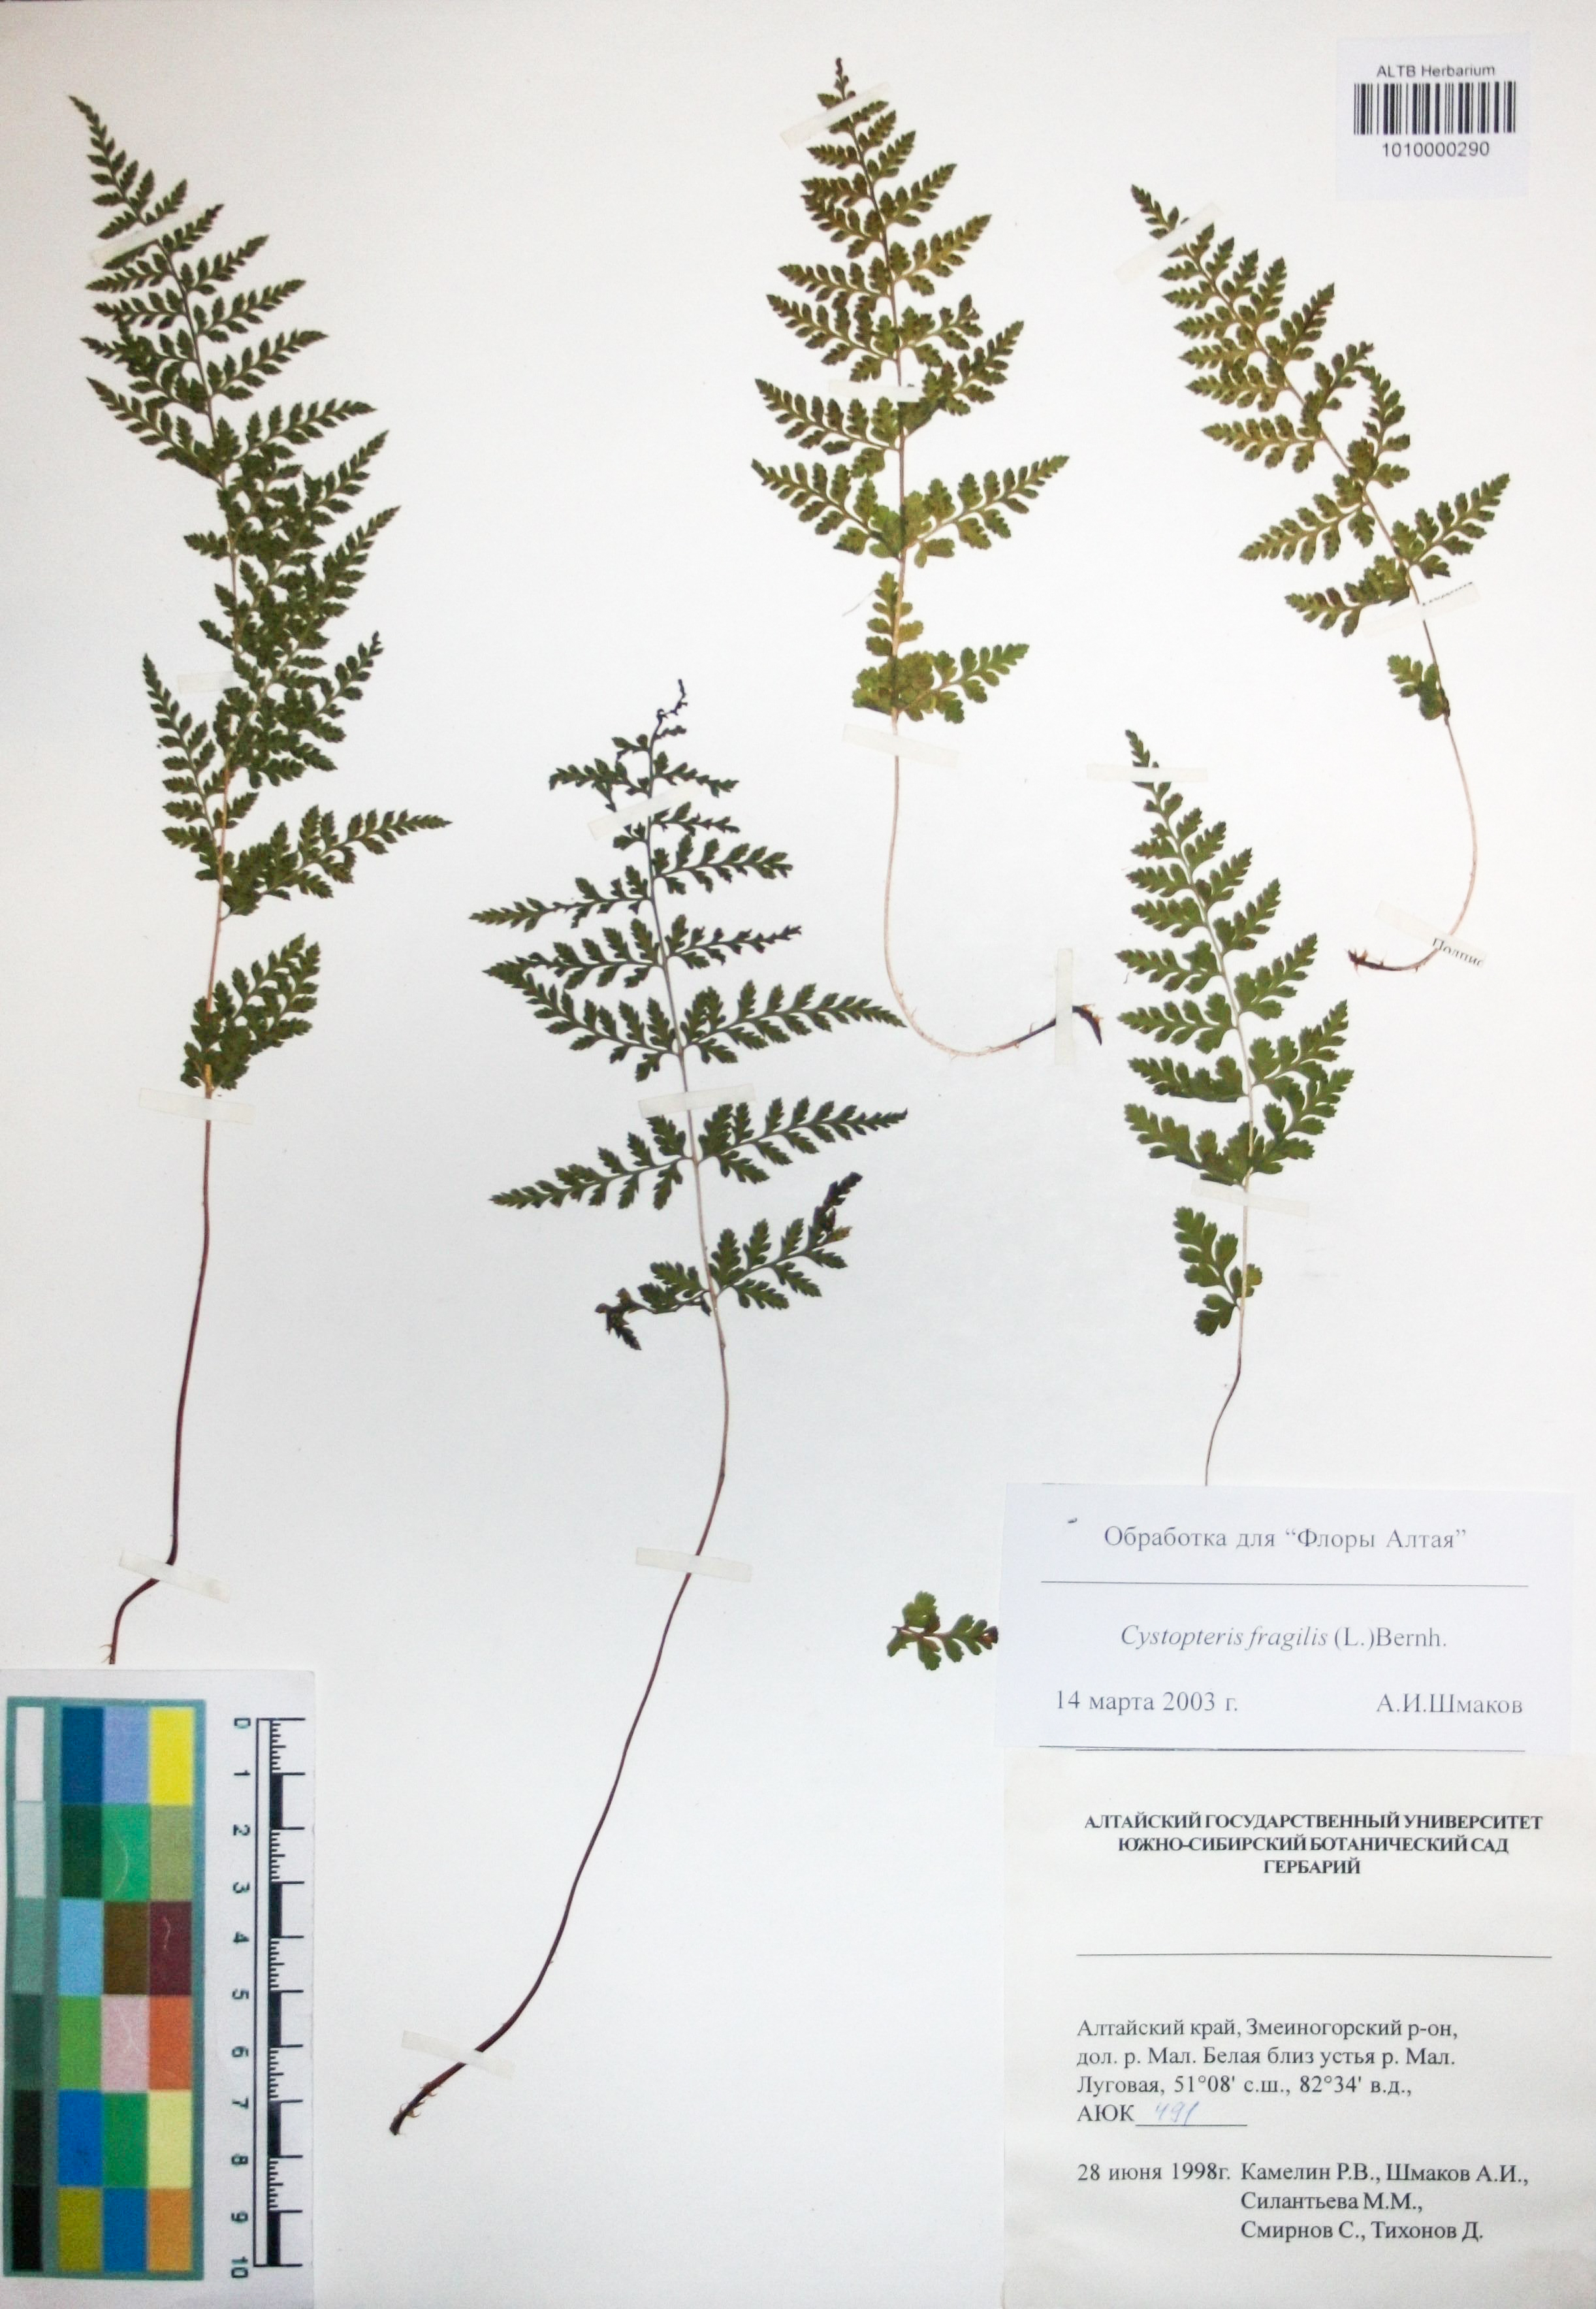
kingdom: Plantae
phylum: Tracheophyta
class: Polypodiopsida
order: Polypodiales
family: Cystopteridaceae
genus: Cystopteris
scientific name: Cystopteris fragilis
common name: Brittle bladder fern
